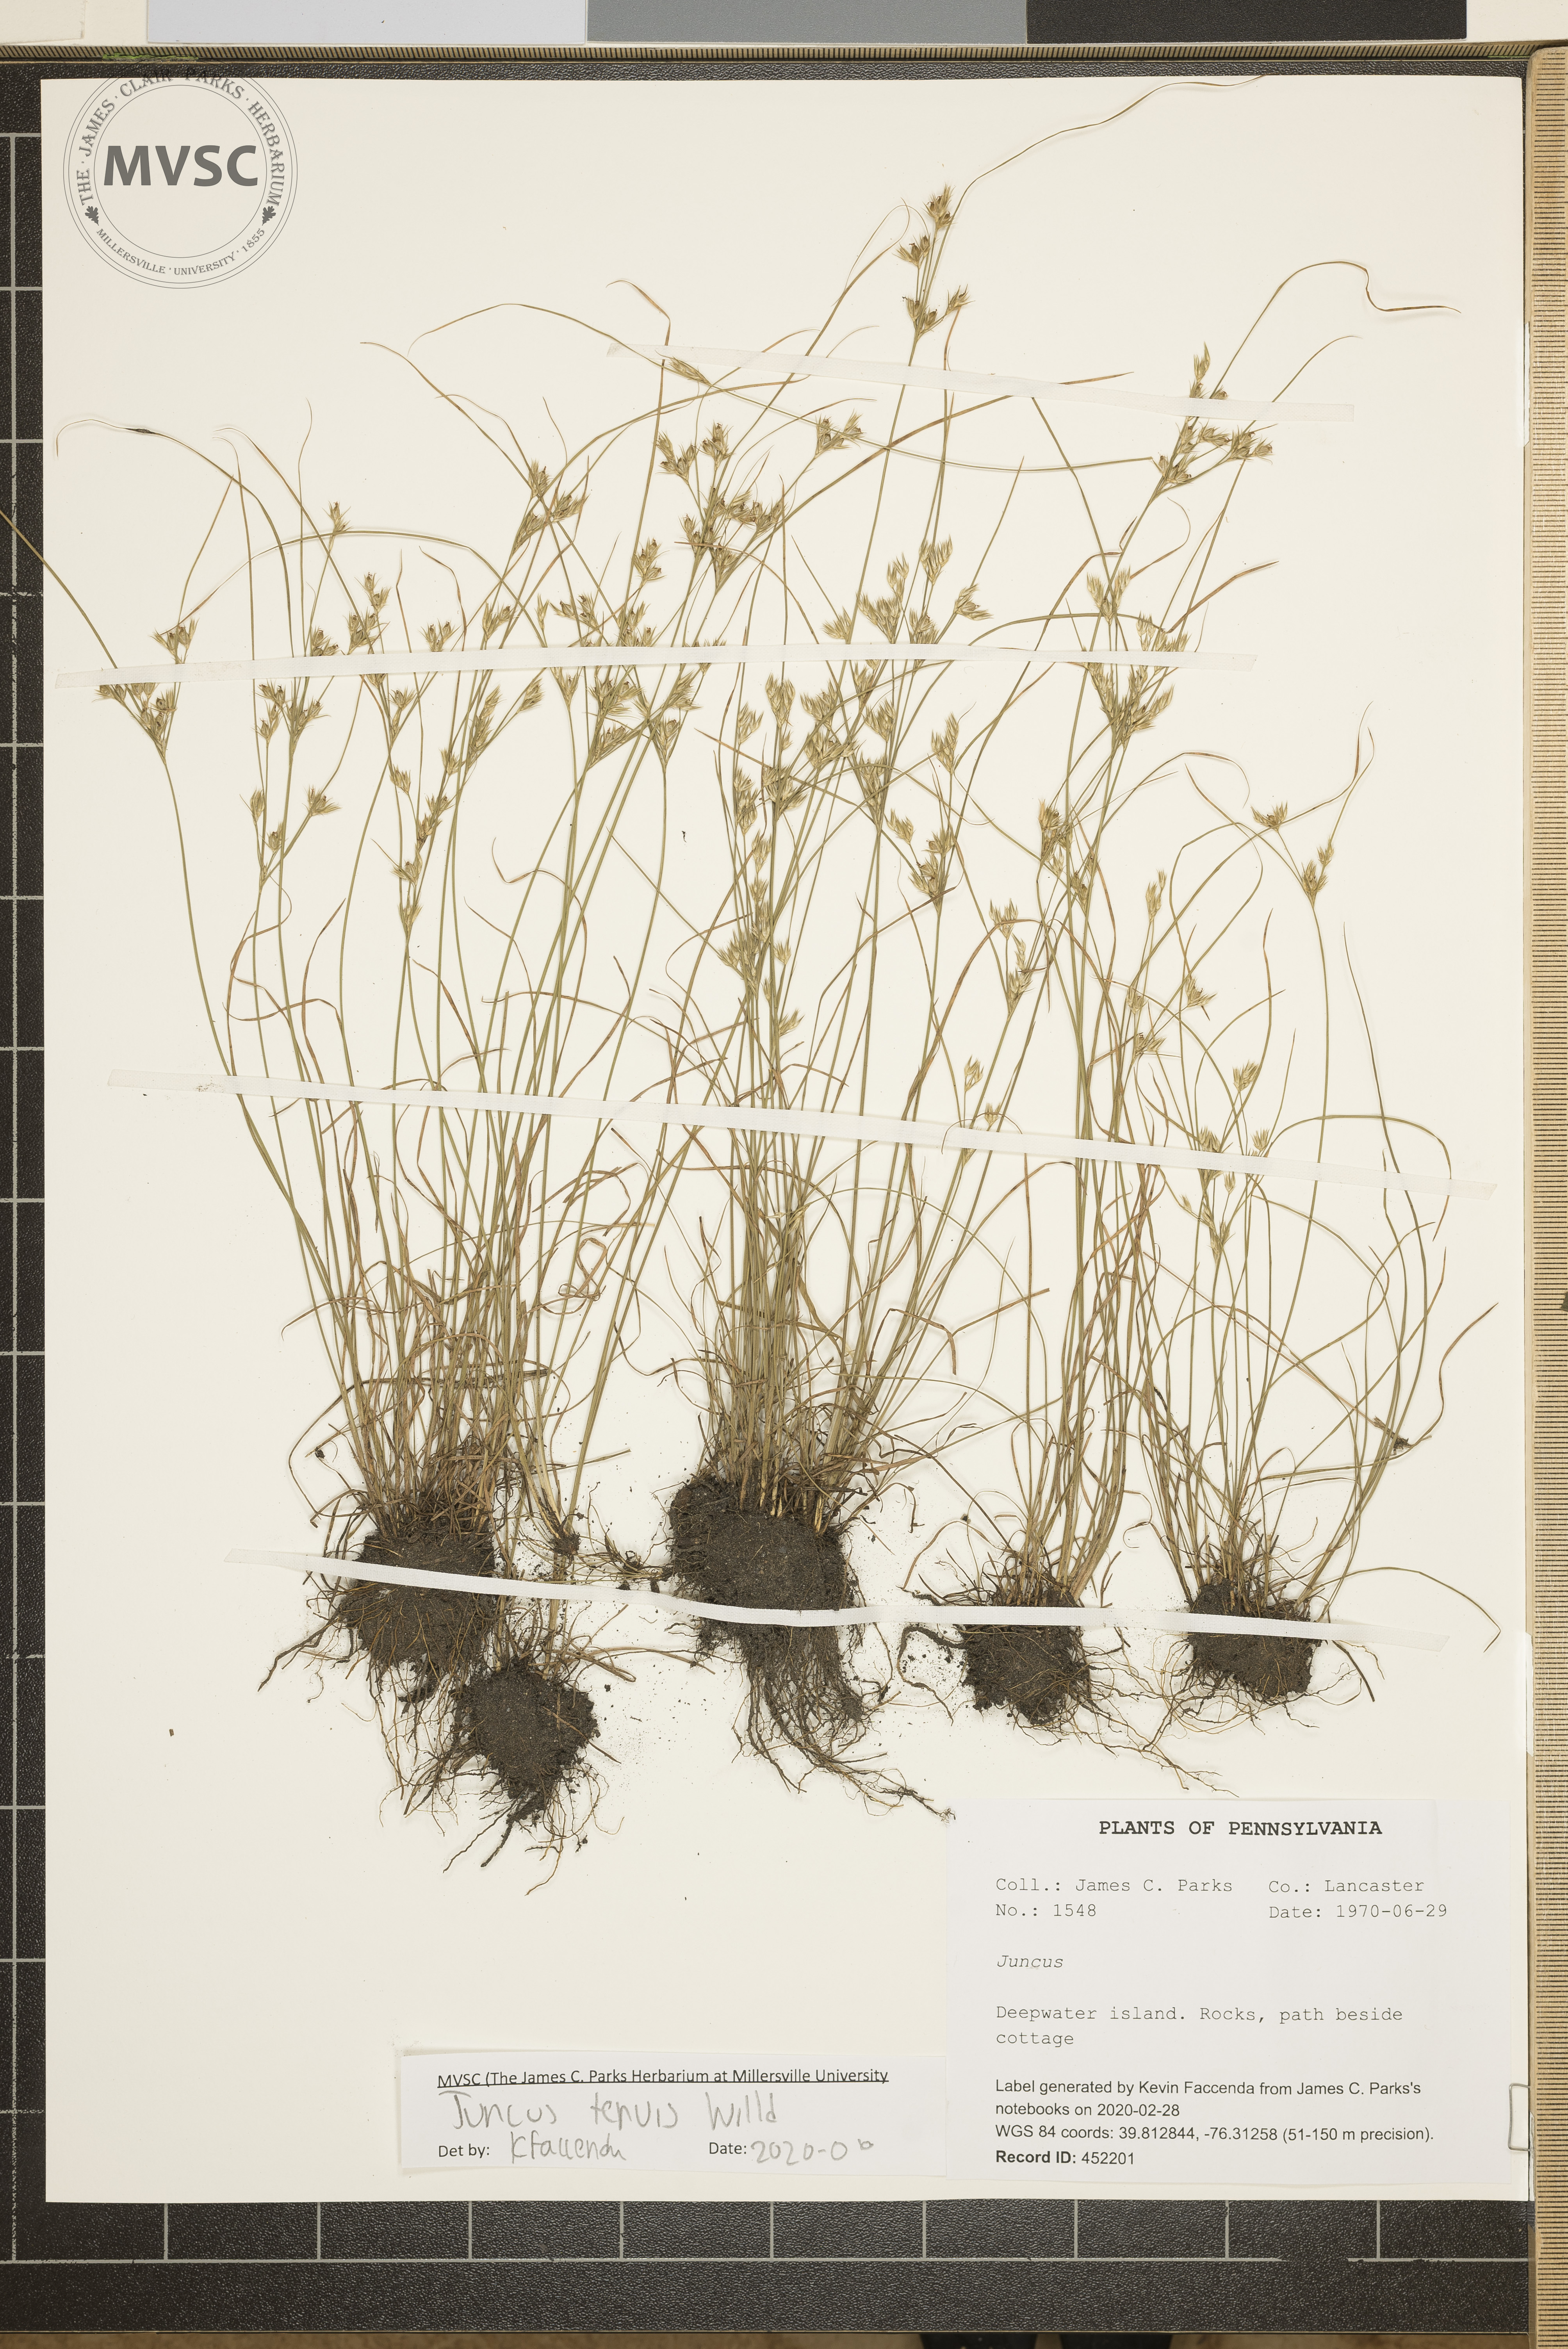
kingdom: Plantae
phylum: Tracheophyta
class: Liliopsida
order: Poales
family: Juncaceae
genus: Juncus
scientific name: Juncus tenuis
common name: Slender rush
